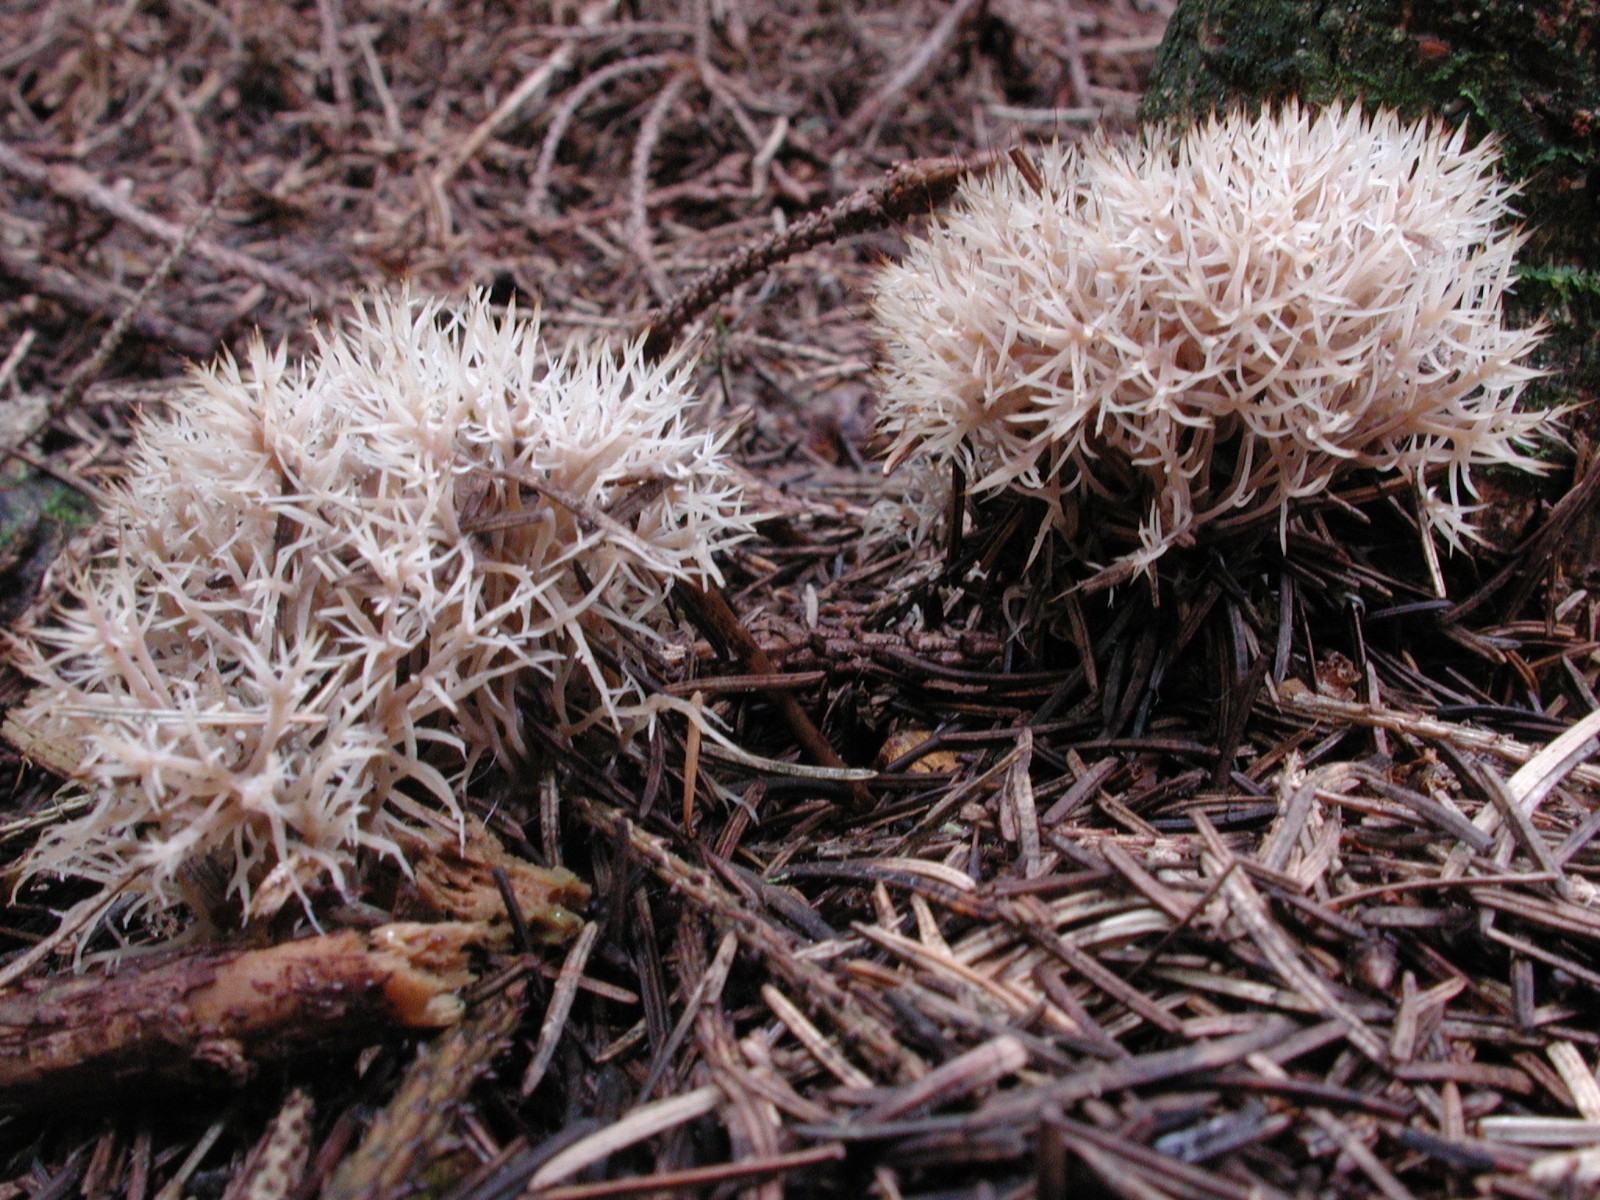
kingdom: Fungi
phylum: Basidiomycota
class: Agaricomycetes
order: Agaricales
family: Pterulaceae
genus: Pterula
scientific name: Pterula multifida
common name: busket fjerkølle
